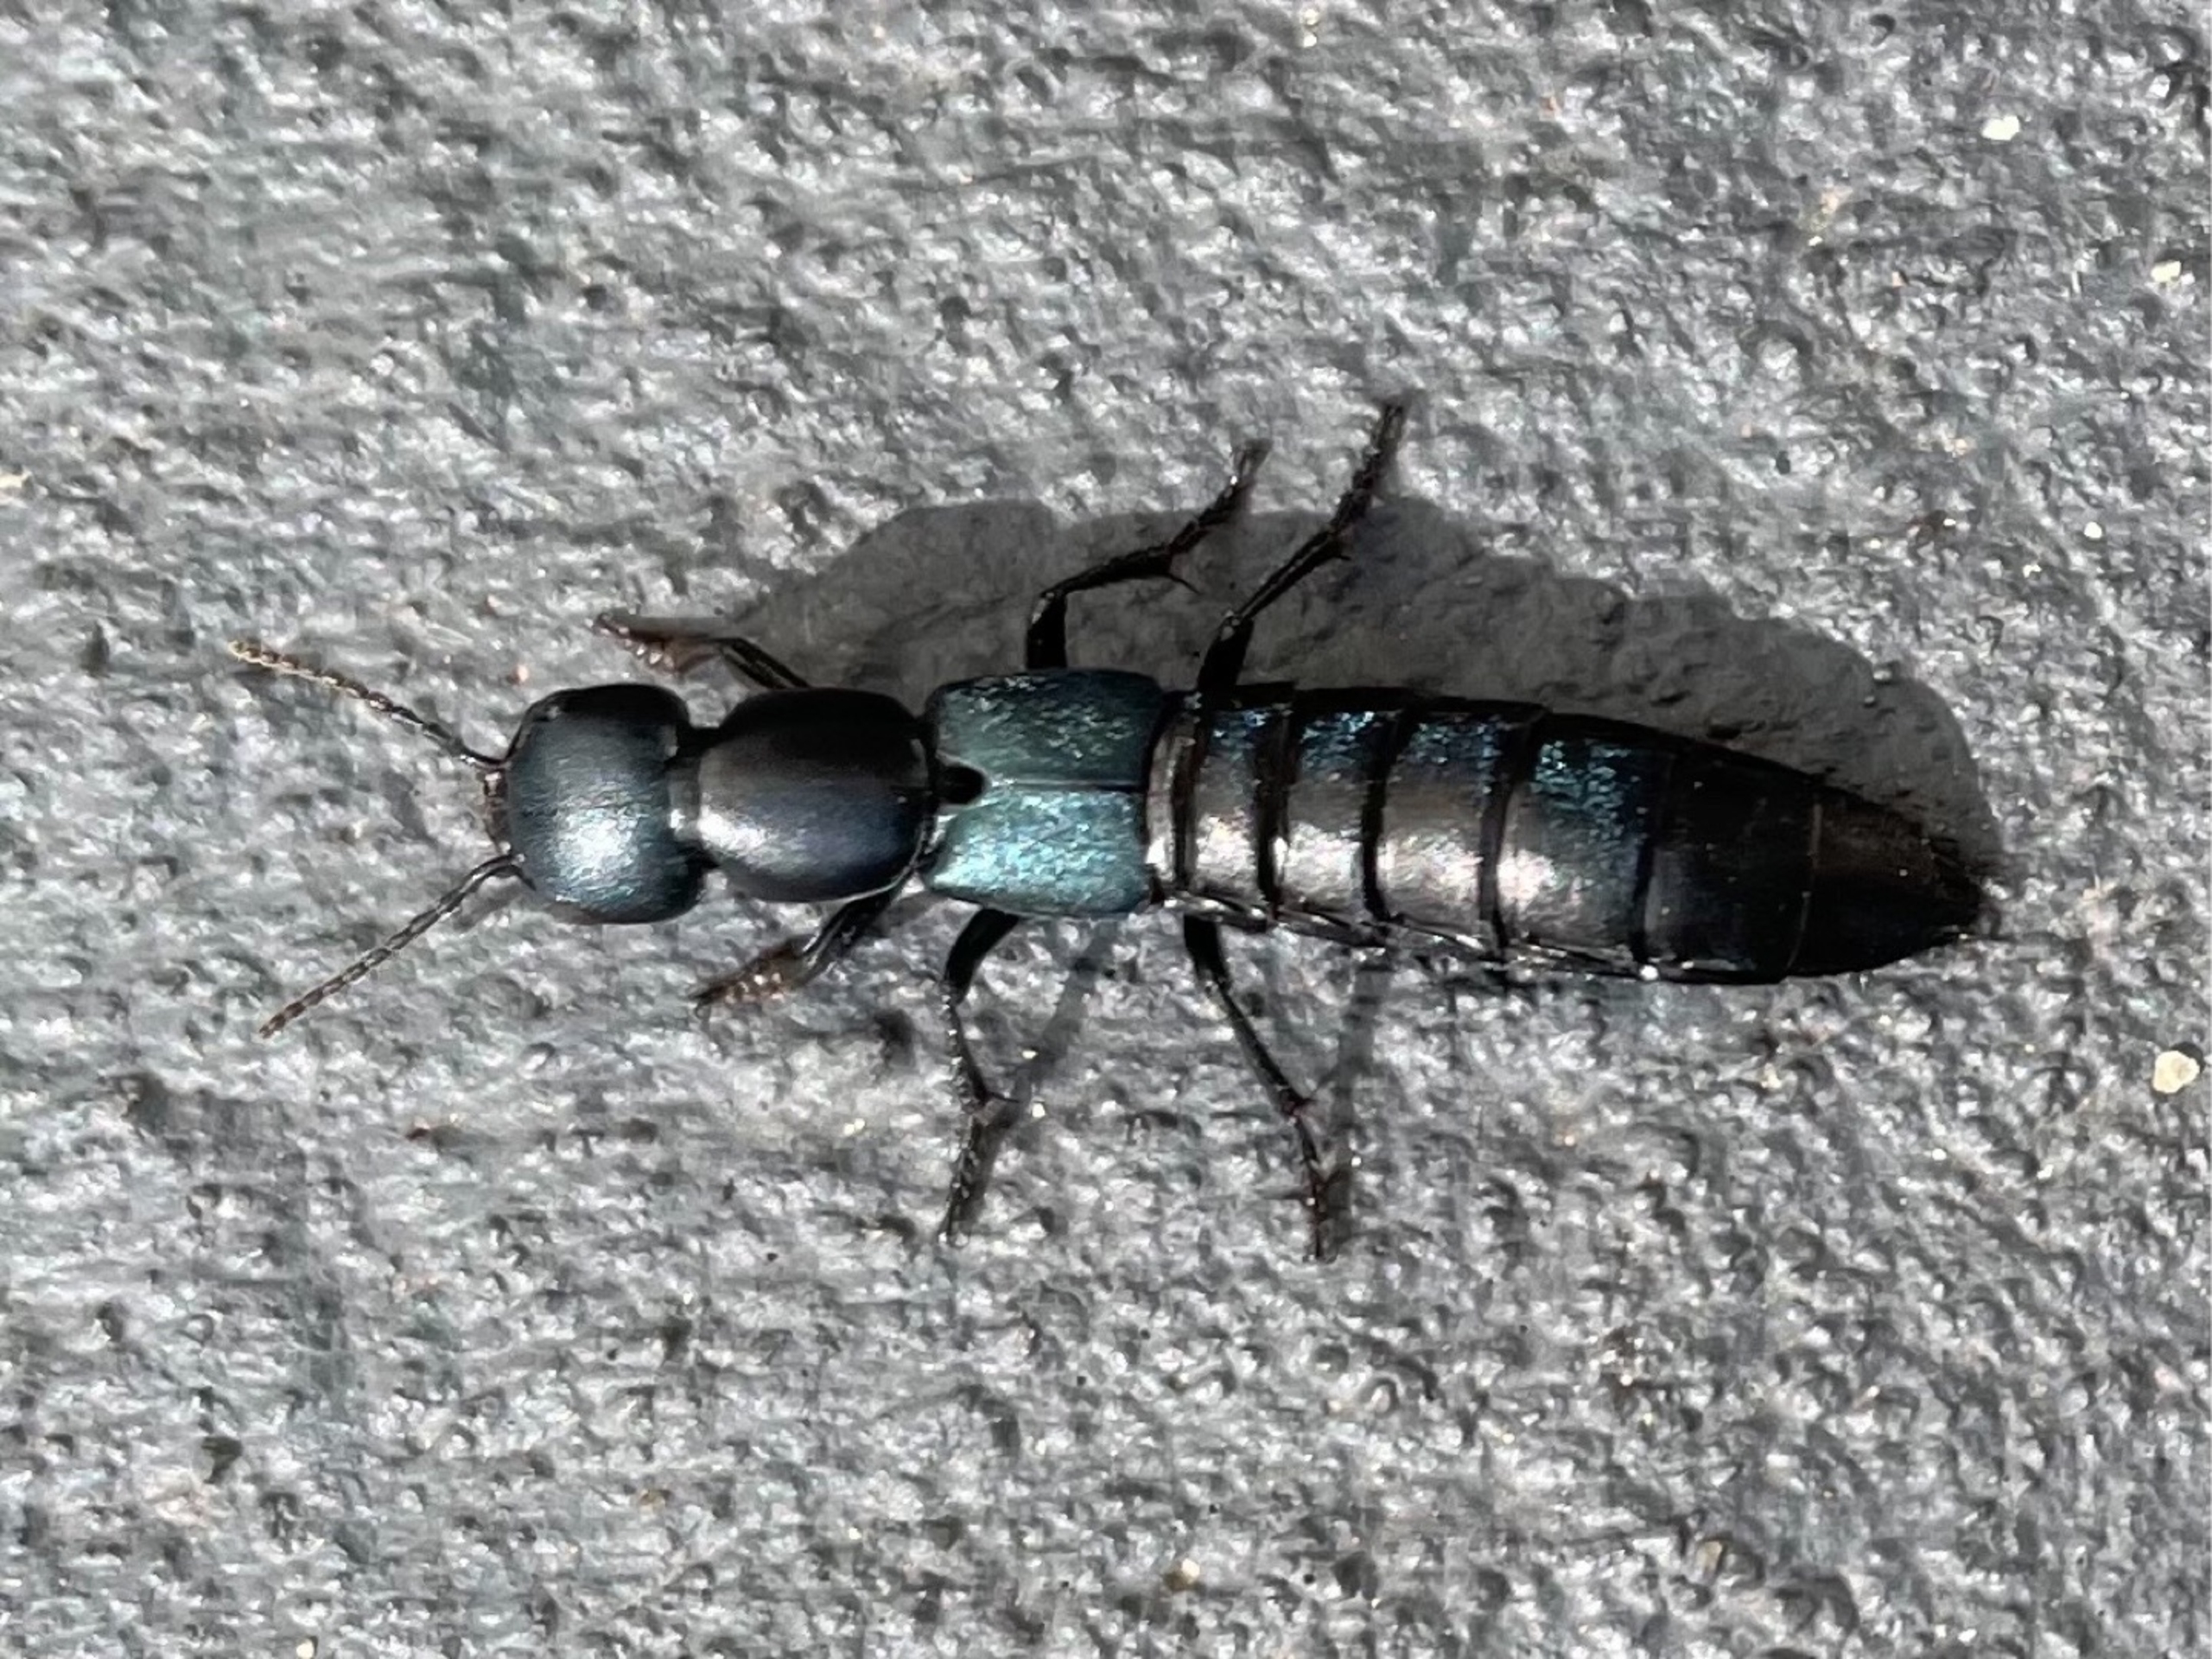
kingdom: Animalia
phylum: Arthropoda
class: Insecta
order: Coleoptera
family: Staphylinidae
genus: Ocypus
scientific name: Ocypus ophthalmicus
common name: Blå kæmperovbille
